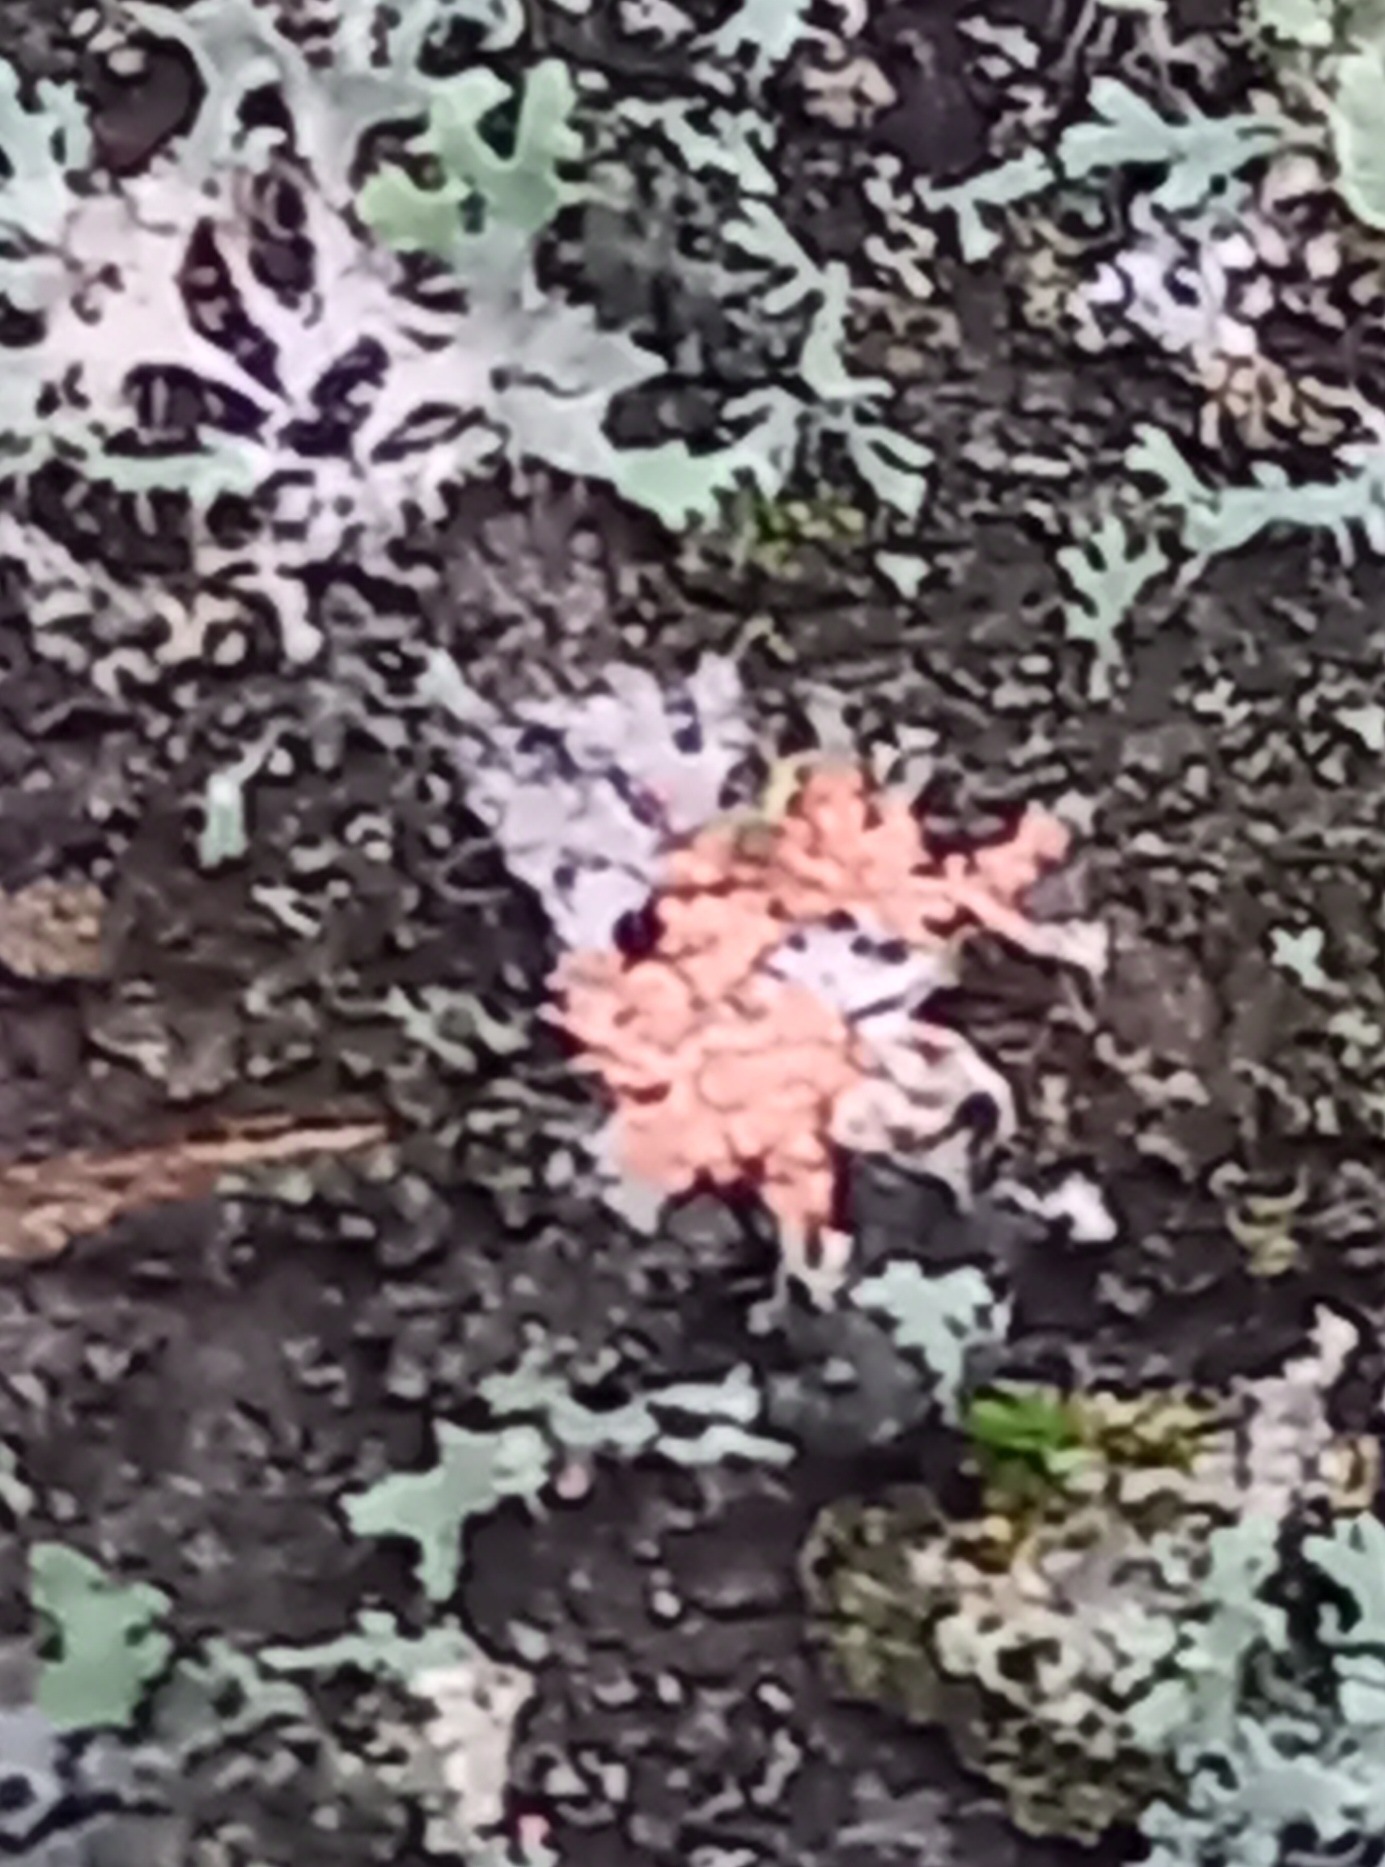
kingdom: Fungi
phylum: Basidiomycota
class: Agaricomycetes
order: Corticiales
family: Corticiaceae
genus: Erythricium
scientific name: Erythricium aurantiacum
